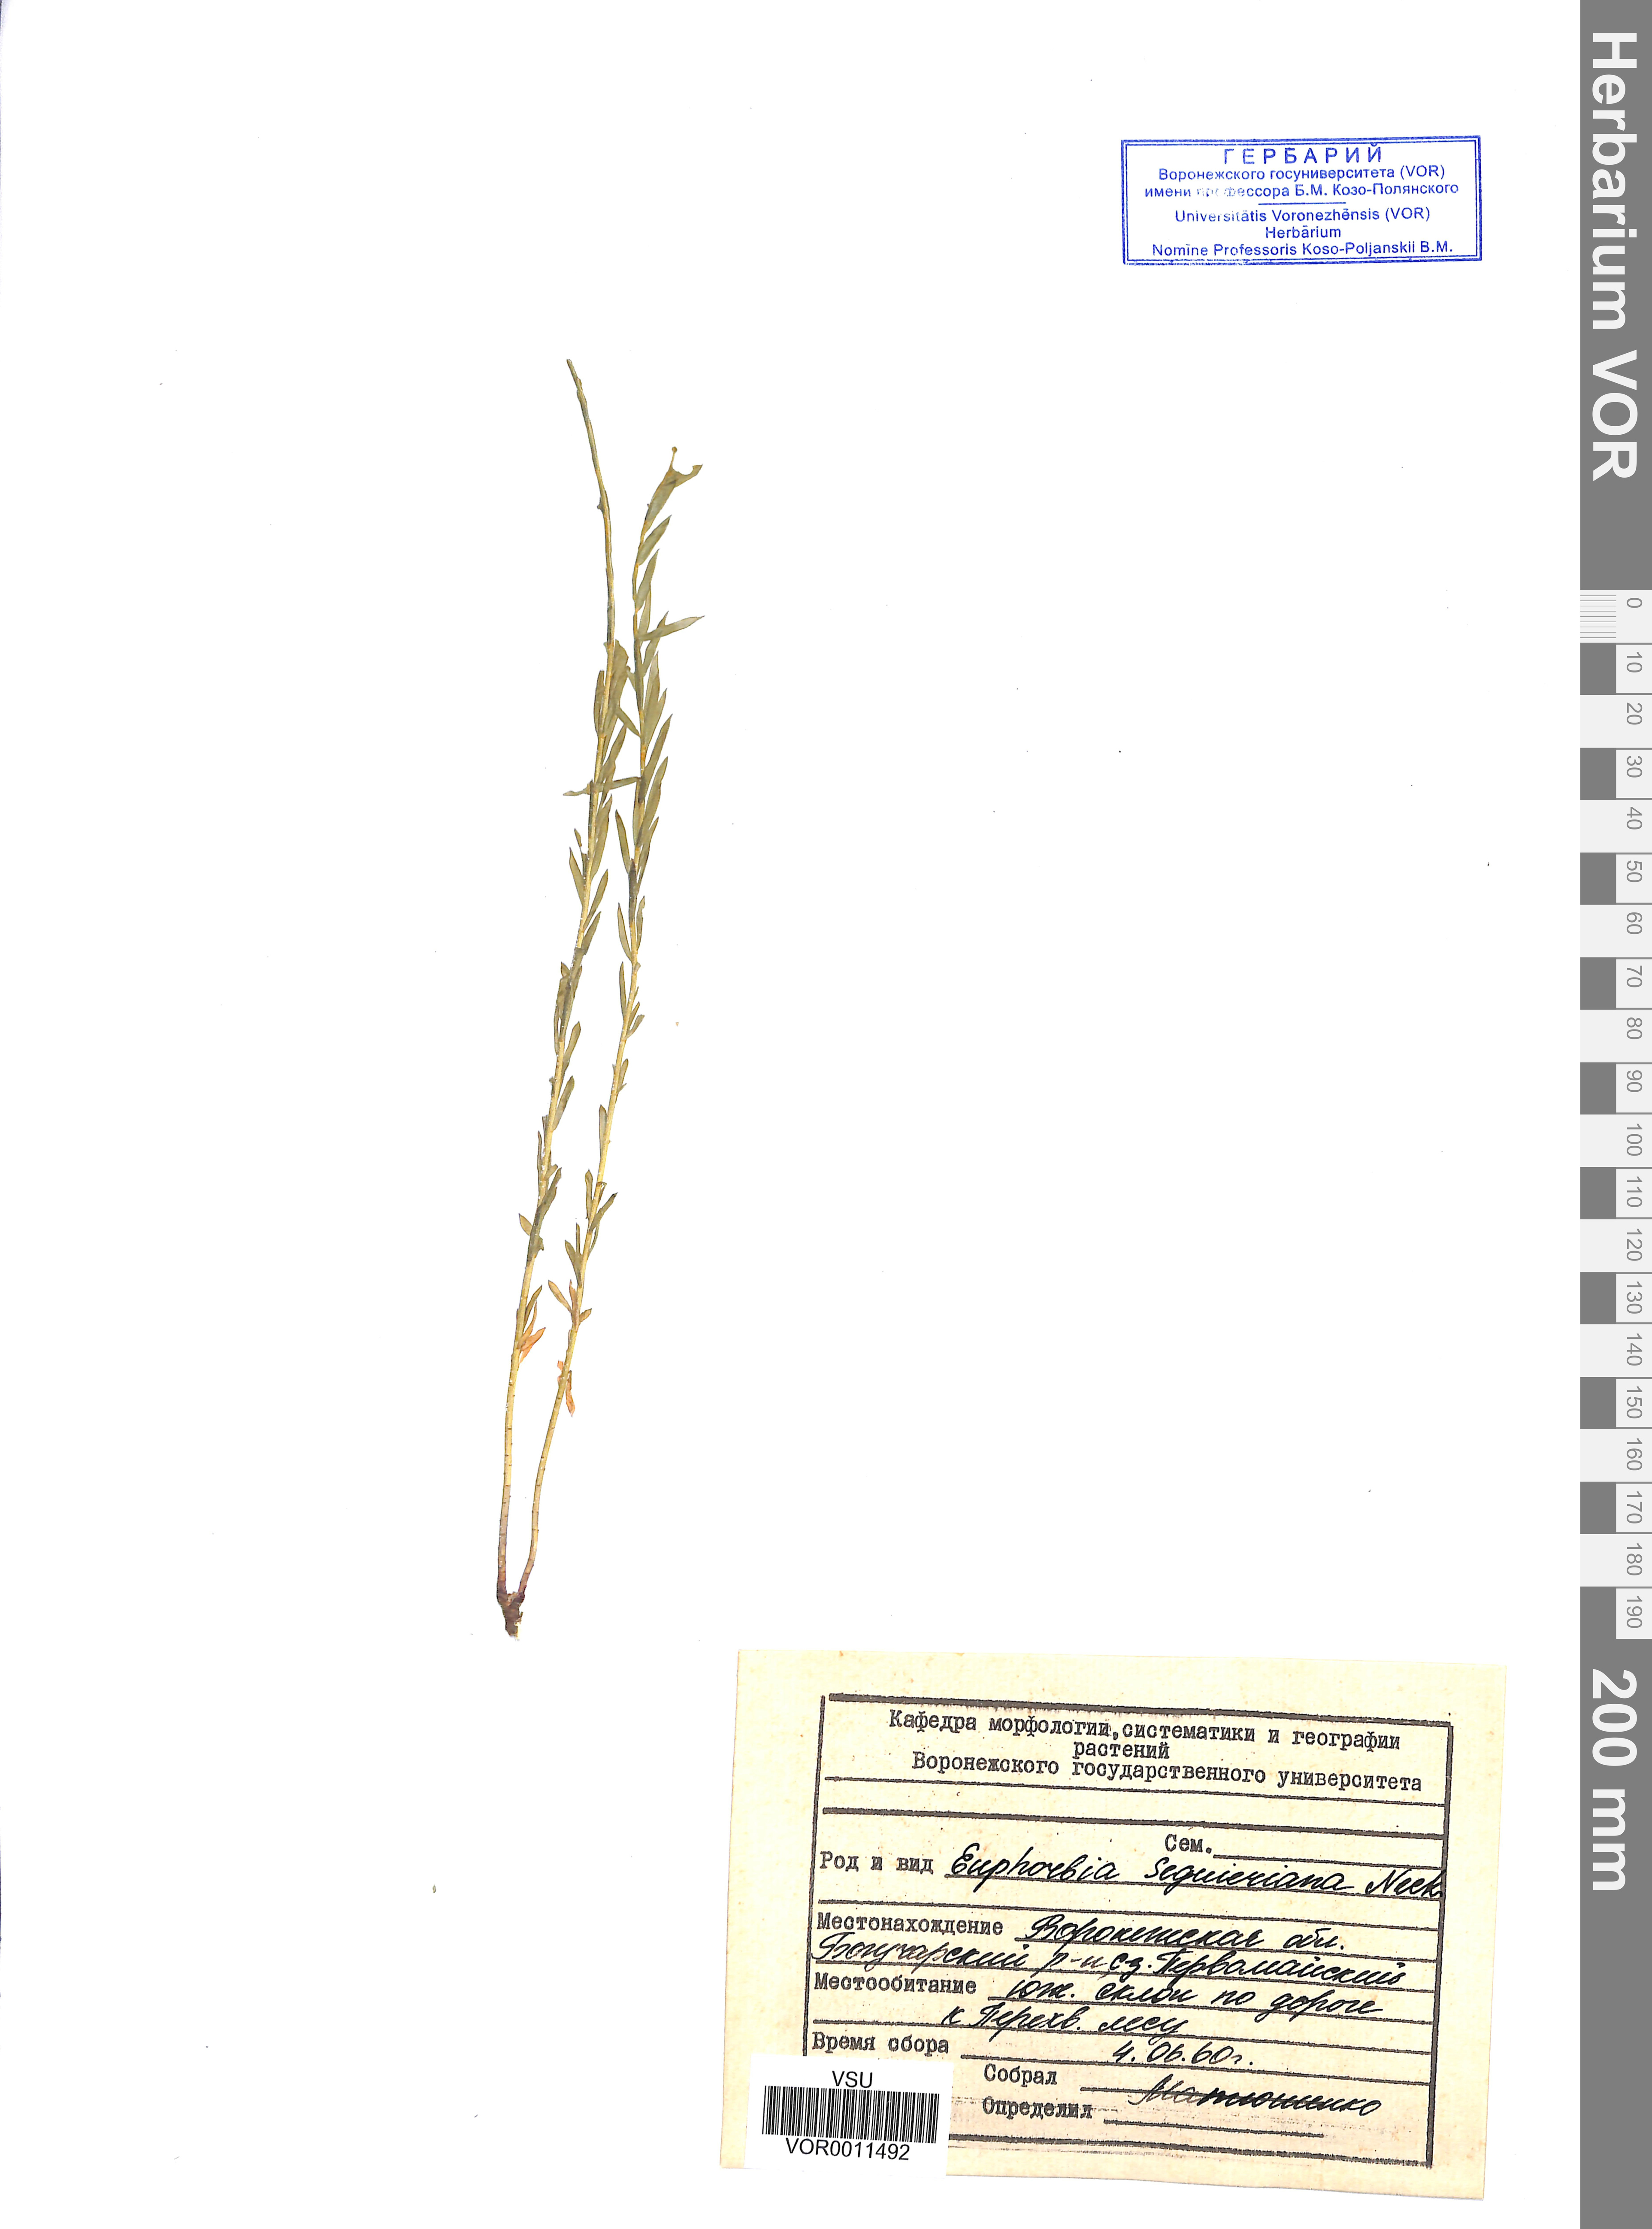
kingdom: Plantae
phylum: Tracheophyta
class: Magnoliopsida
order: Malpighiales
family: Euphorbiaceae
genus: Euphorbia
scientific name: Euphorbia seguieriana
